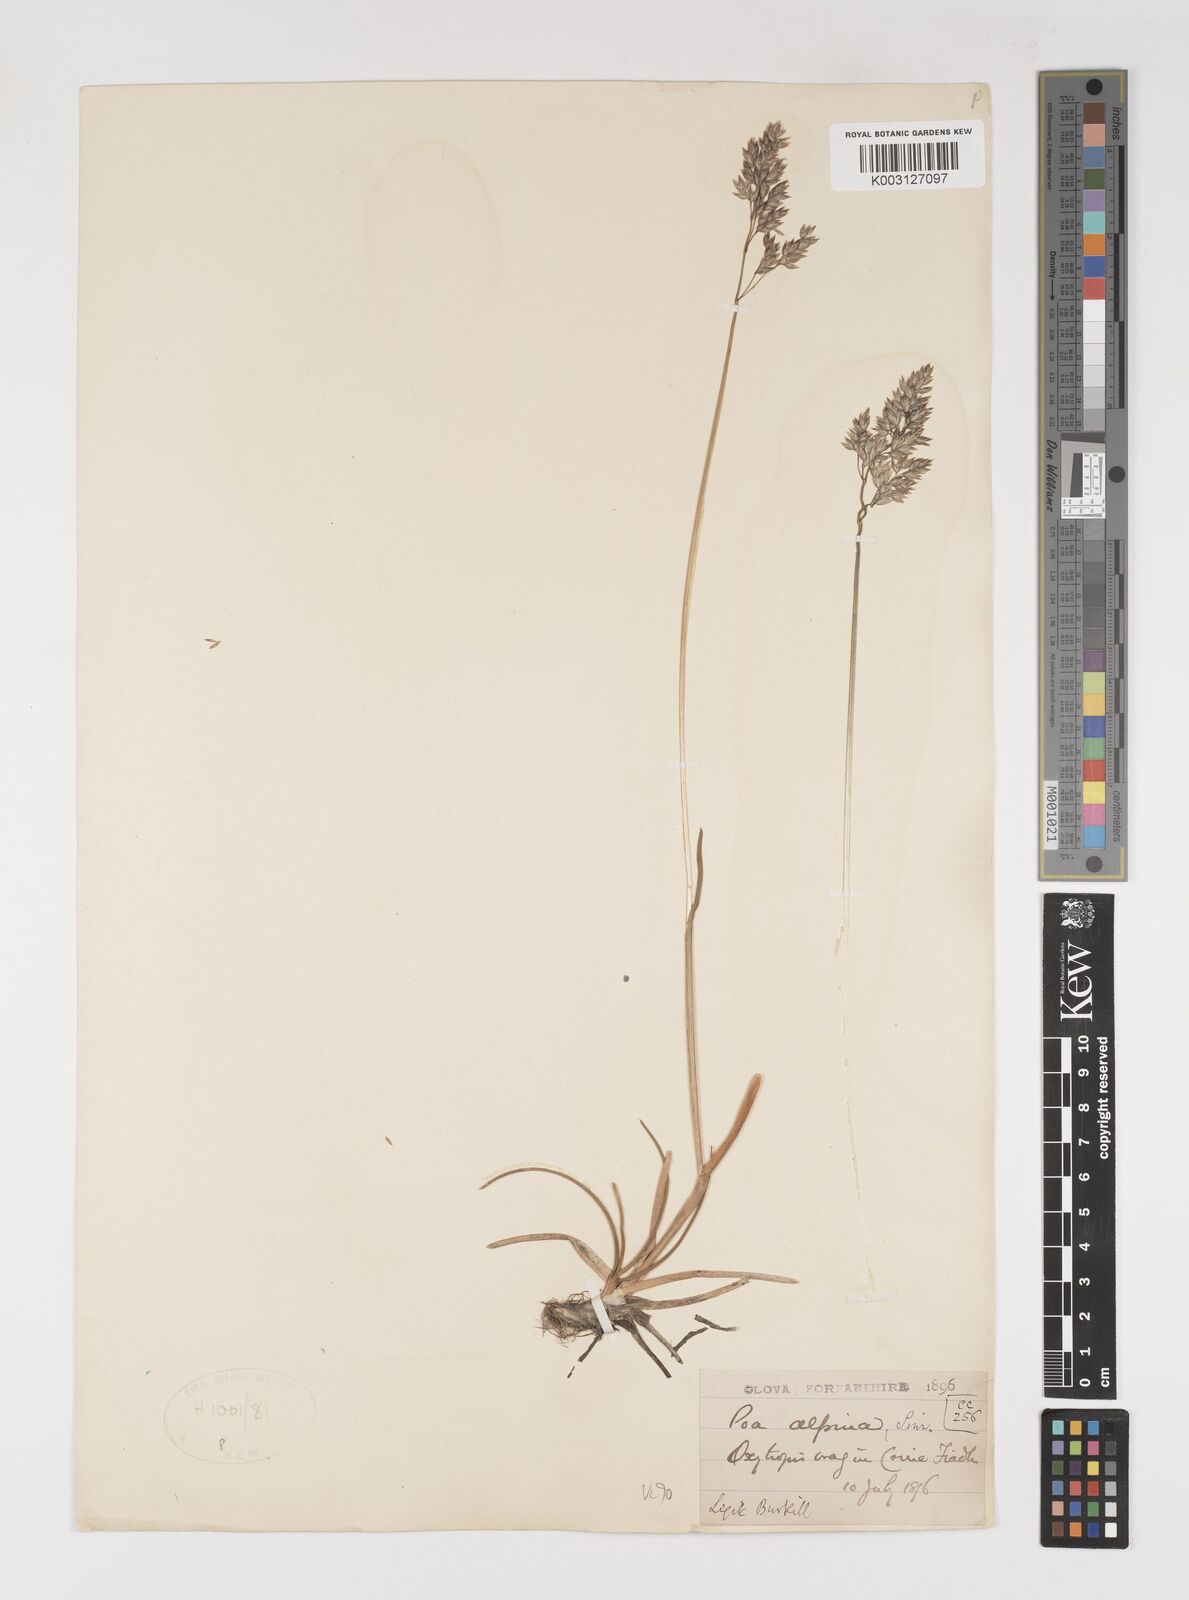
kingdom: Plantae
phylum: Tracheophyta
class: Liliopsida
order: Poales
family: Poaceae
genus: Poa
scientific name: Poa alpina
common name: Alpine bluegrass
